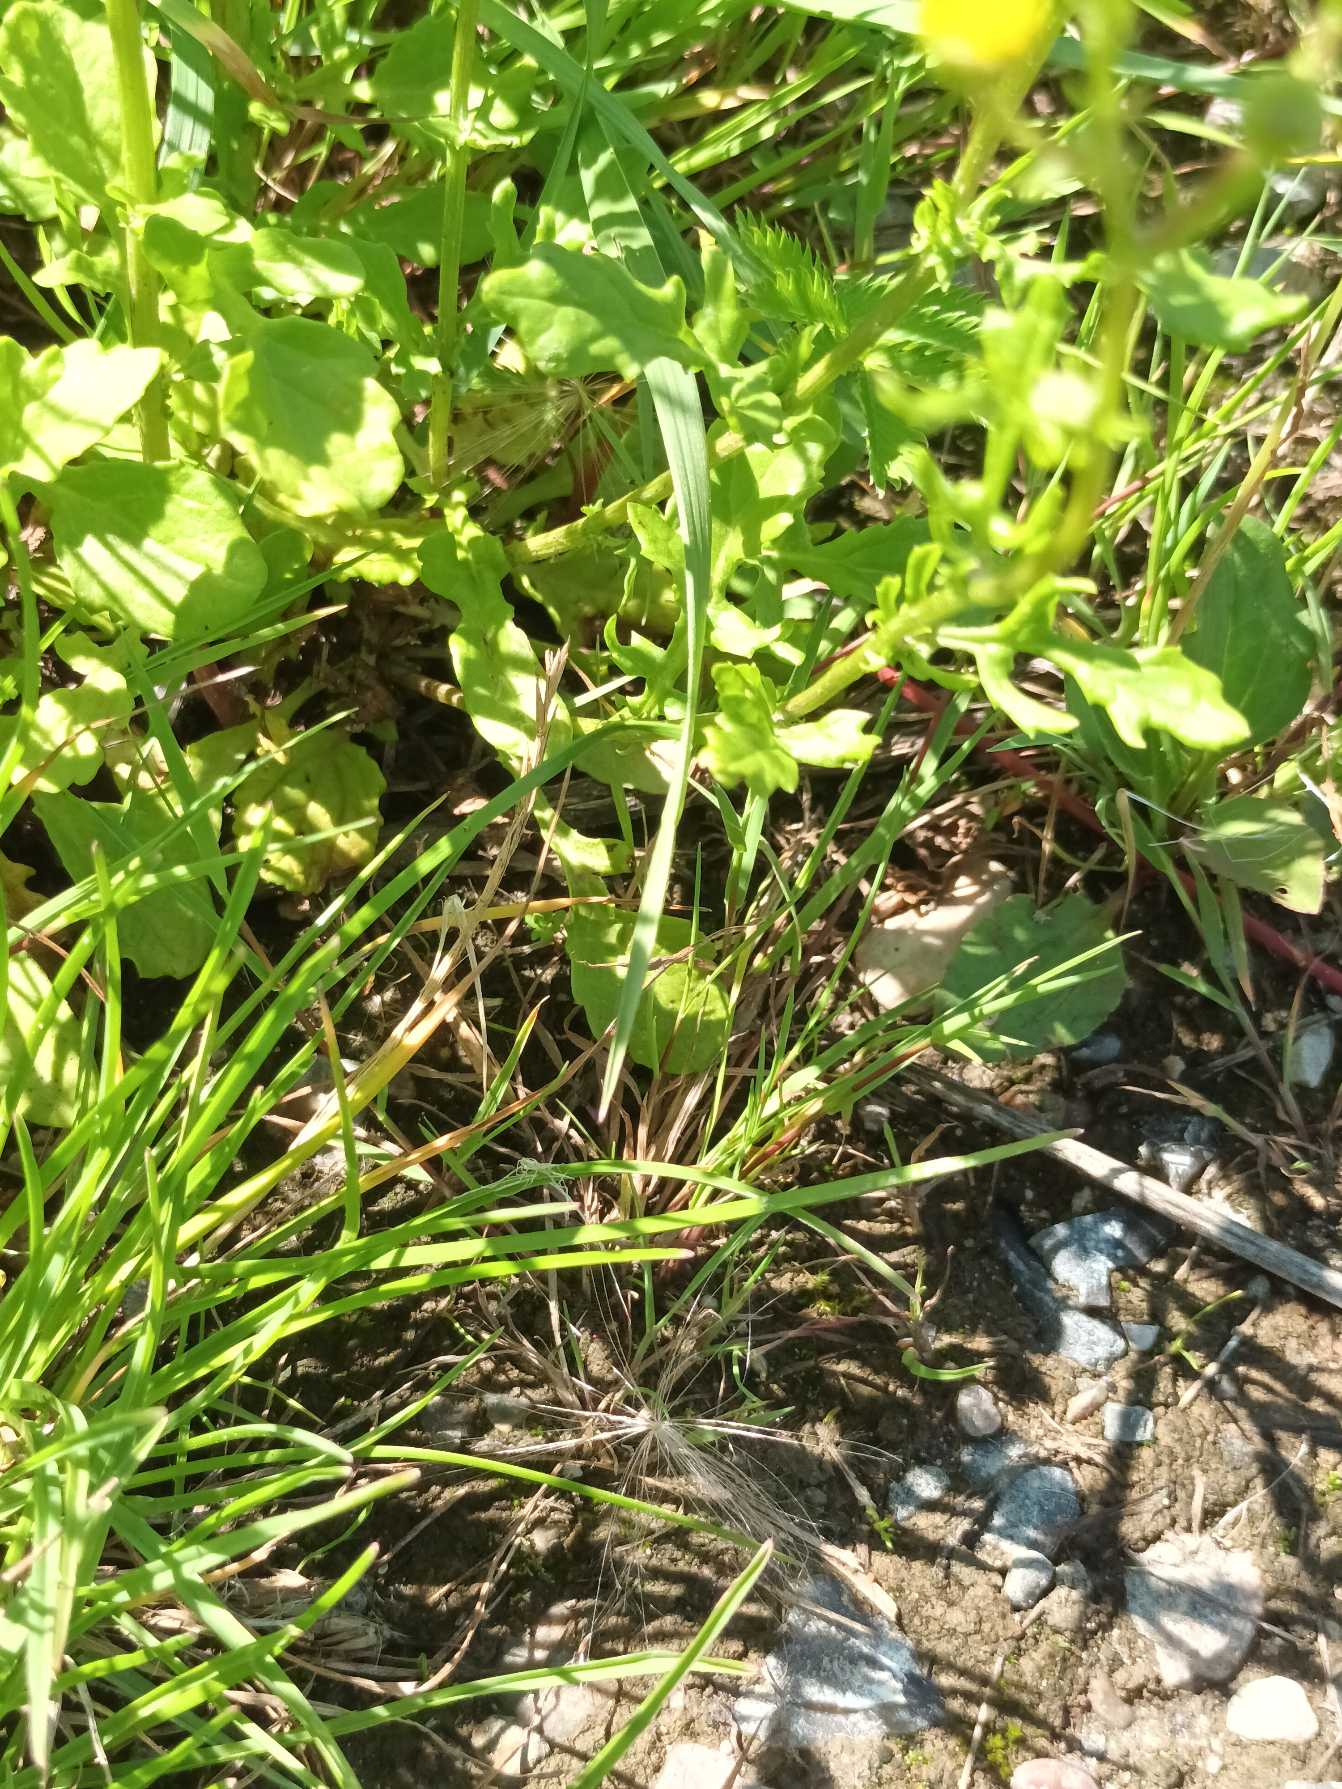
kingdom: Plantae
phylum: Tracheophyta
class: Magnoliopsida
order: Asterales
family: Asteraceae
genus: Jacobaea
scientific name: Jacobaea erratica
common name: Småblomstret brandbæger
